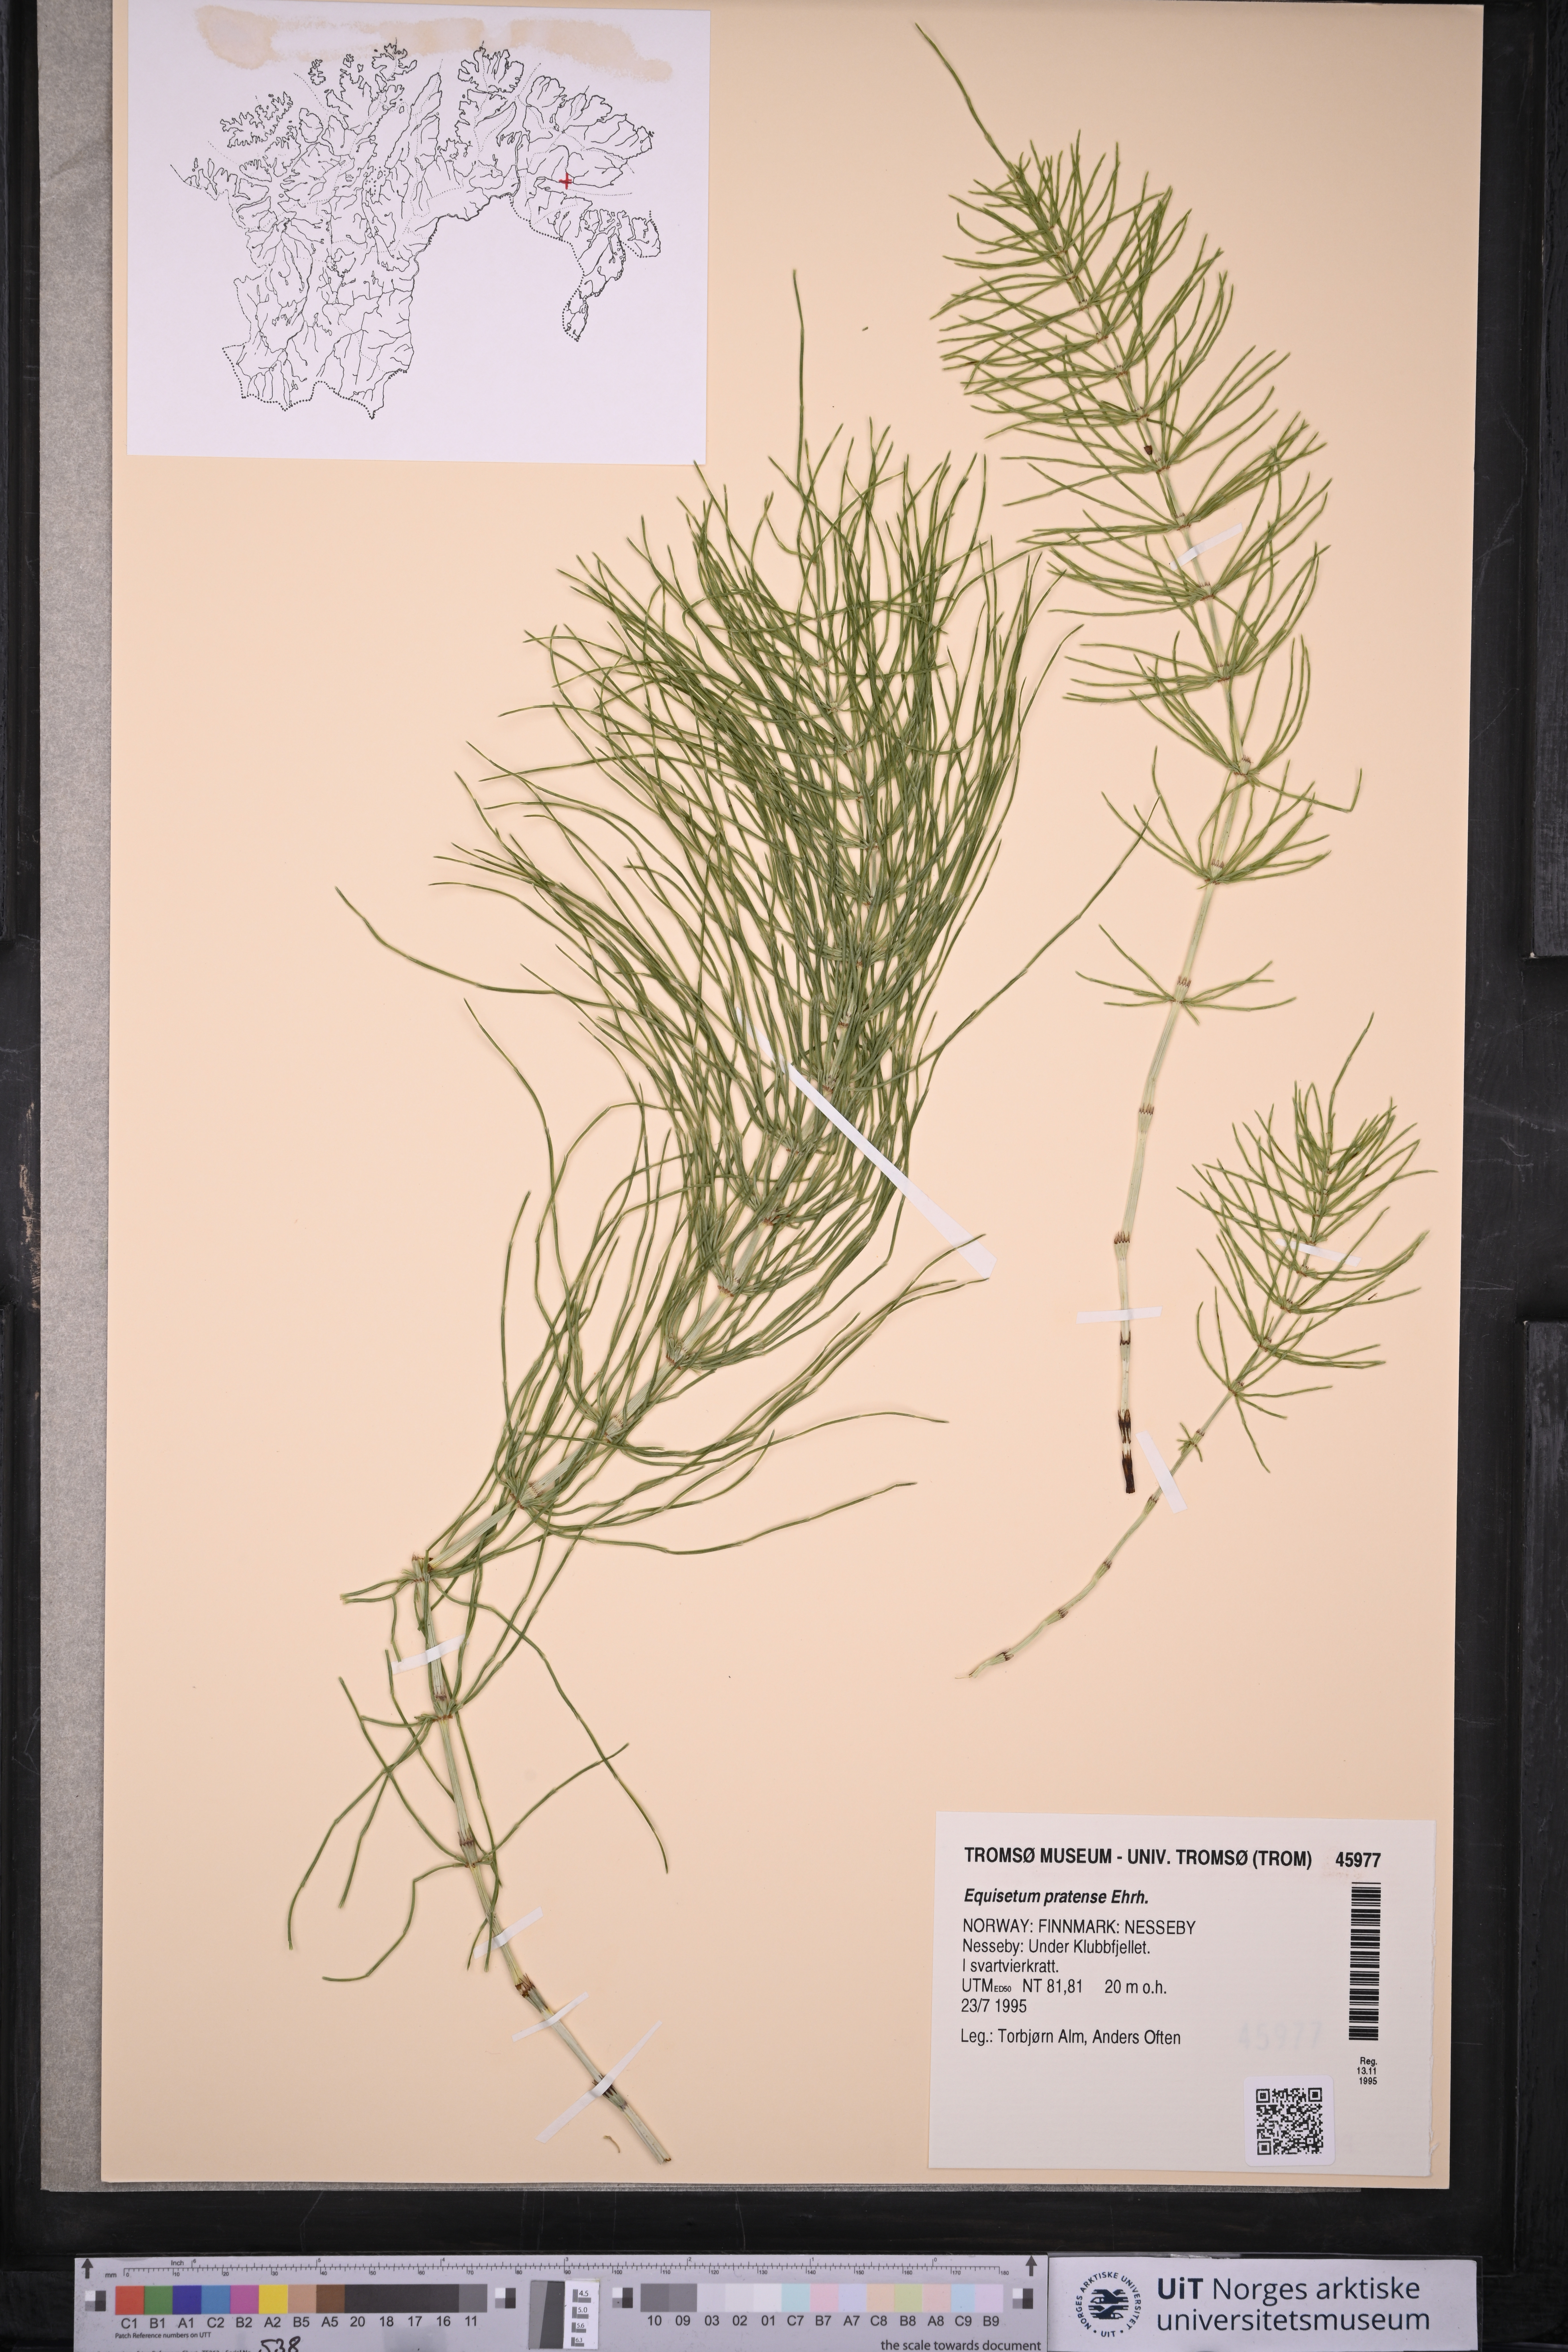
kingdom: Plantae
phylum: Tracheophyta
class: Polypodiopsida
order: Equisetales
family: Equisetaceae
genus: Equisetum
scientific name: Equisetum pratense
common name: Meadow horsetail
